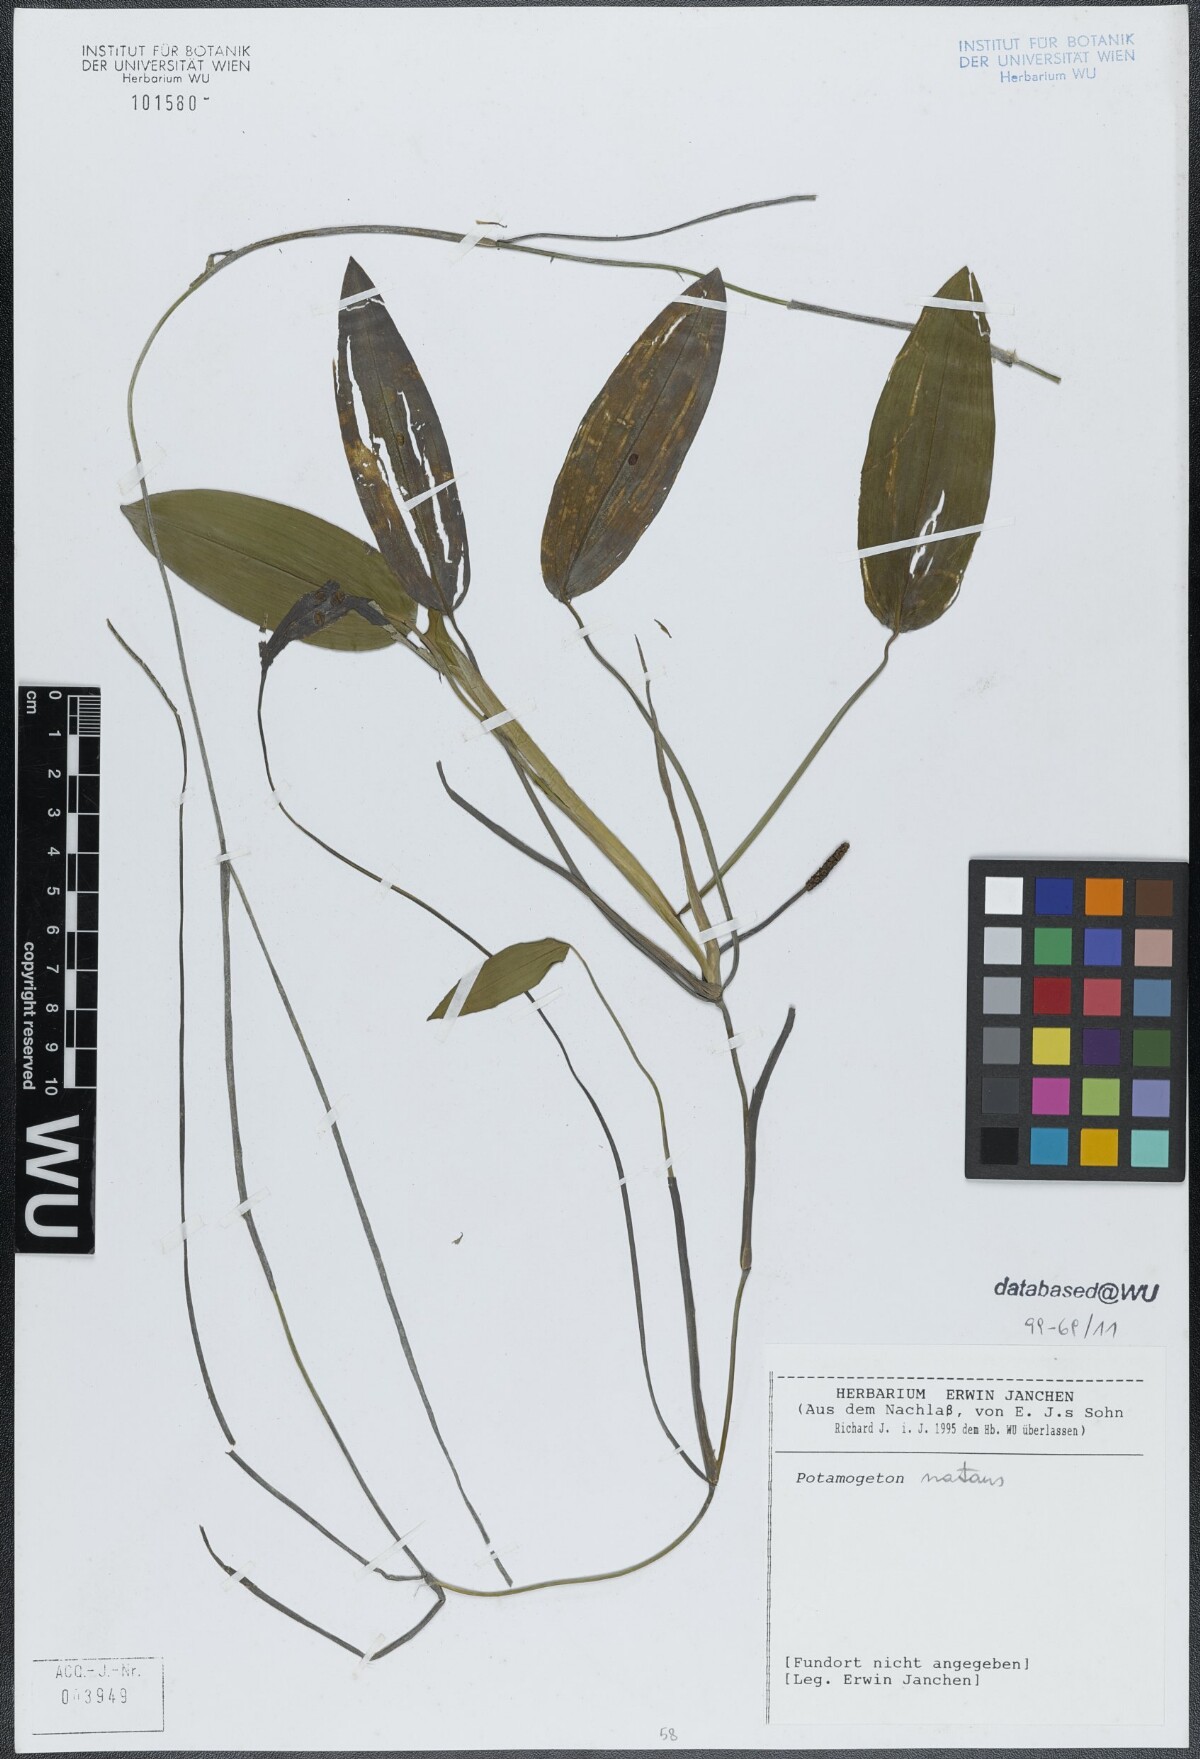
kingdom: Plantae
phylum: Tracheophyta
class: Liliopsida
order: Alismatales
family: Potamogetonaceae
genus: Potamogeton
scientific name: Potamogeton natans
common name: Broad-leaved pondweed
